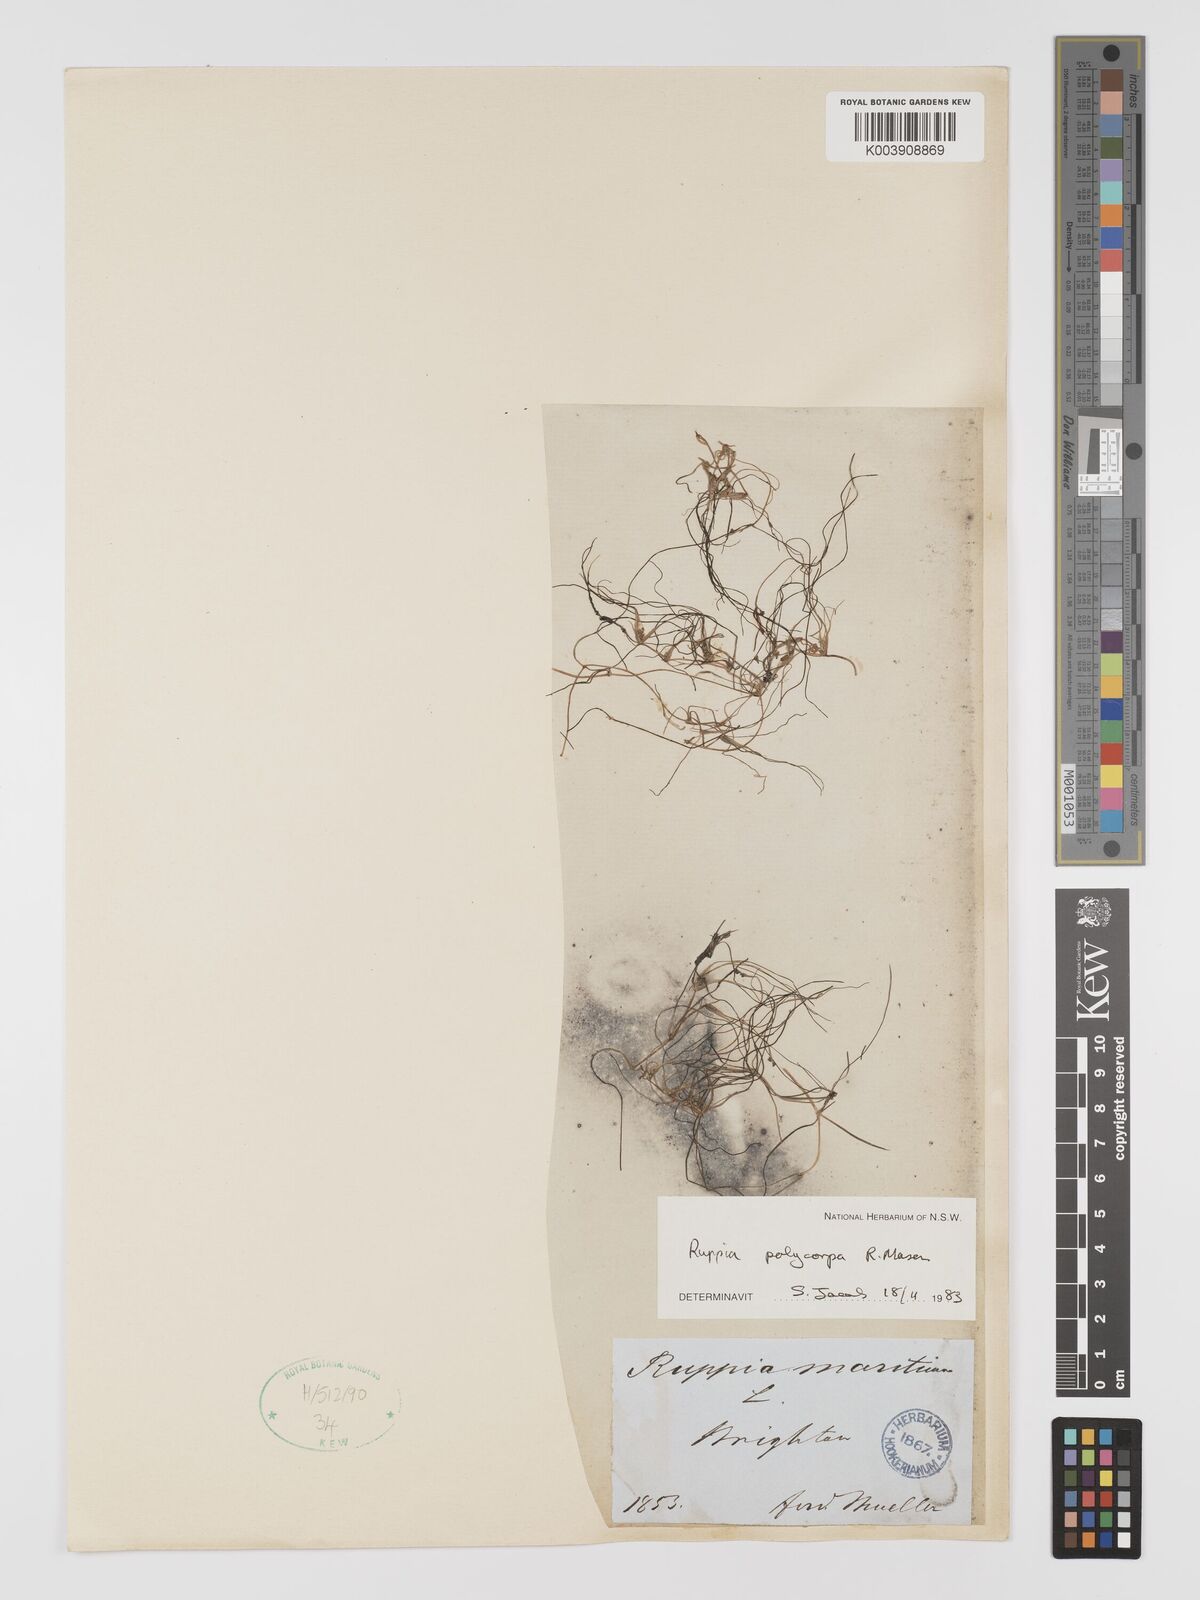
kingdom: Plantae
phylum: Tracheophyta
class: Liliopsida
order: Alismatales
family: Ruppiaceae
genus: Ruppia
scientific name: Ruppia polycarpa
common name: Species code: rp
